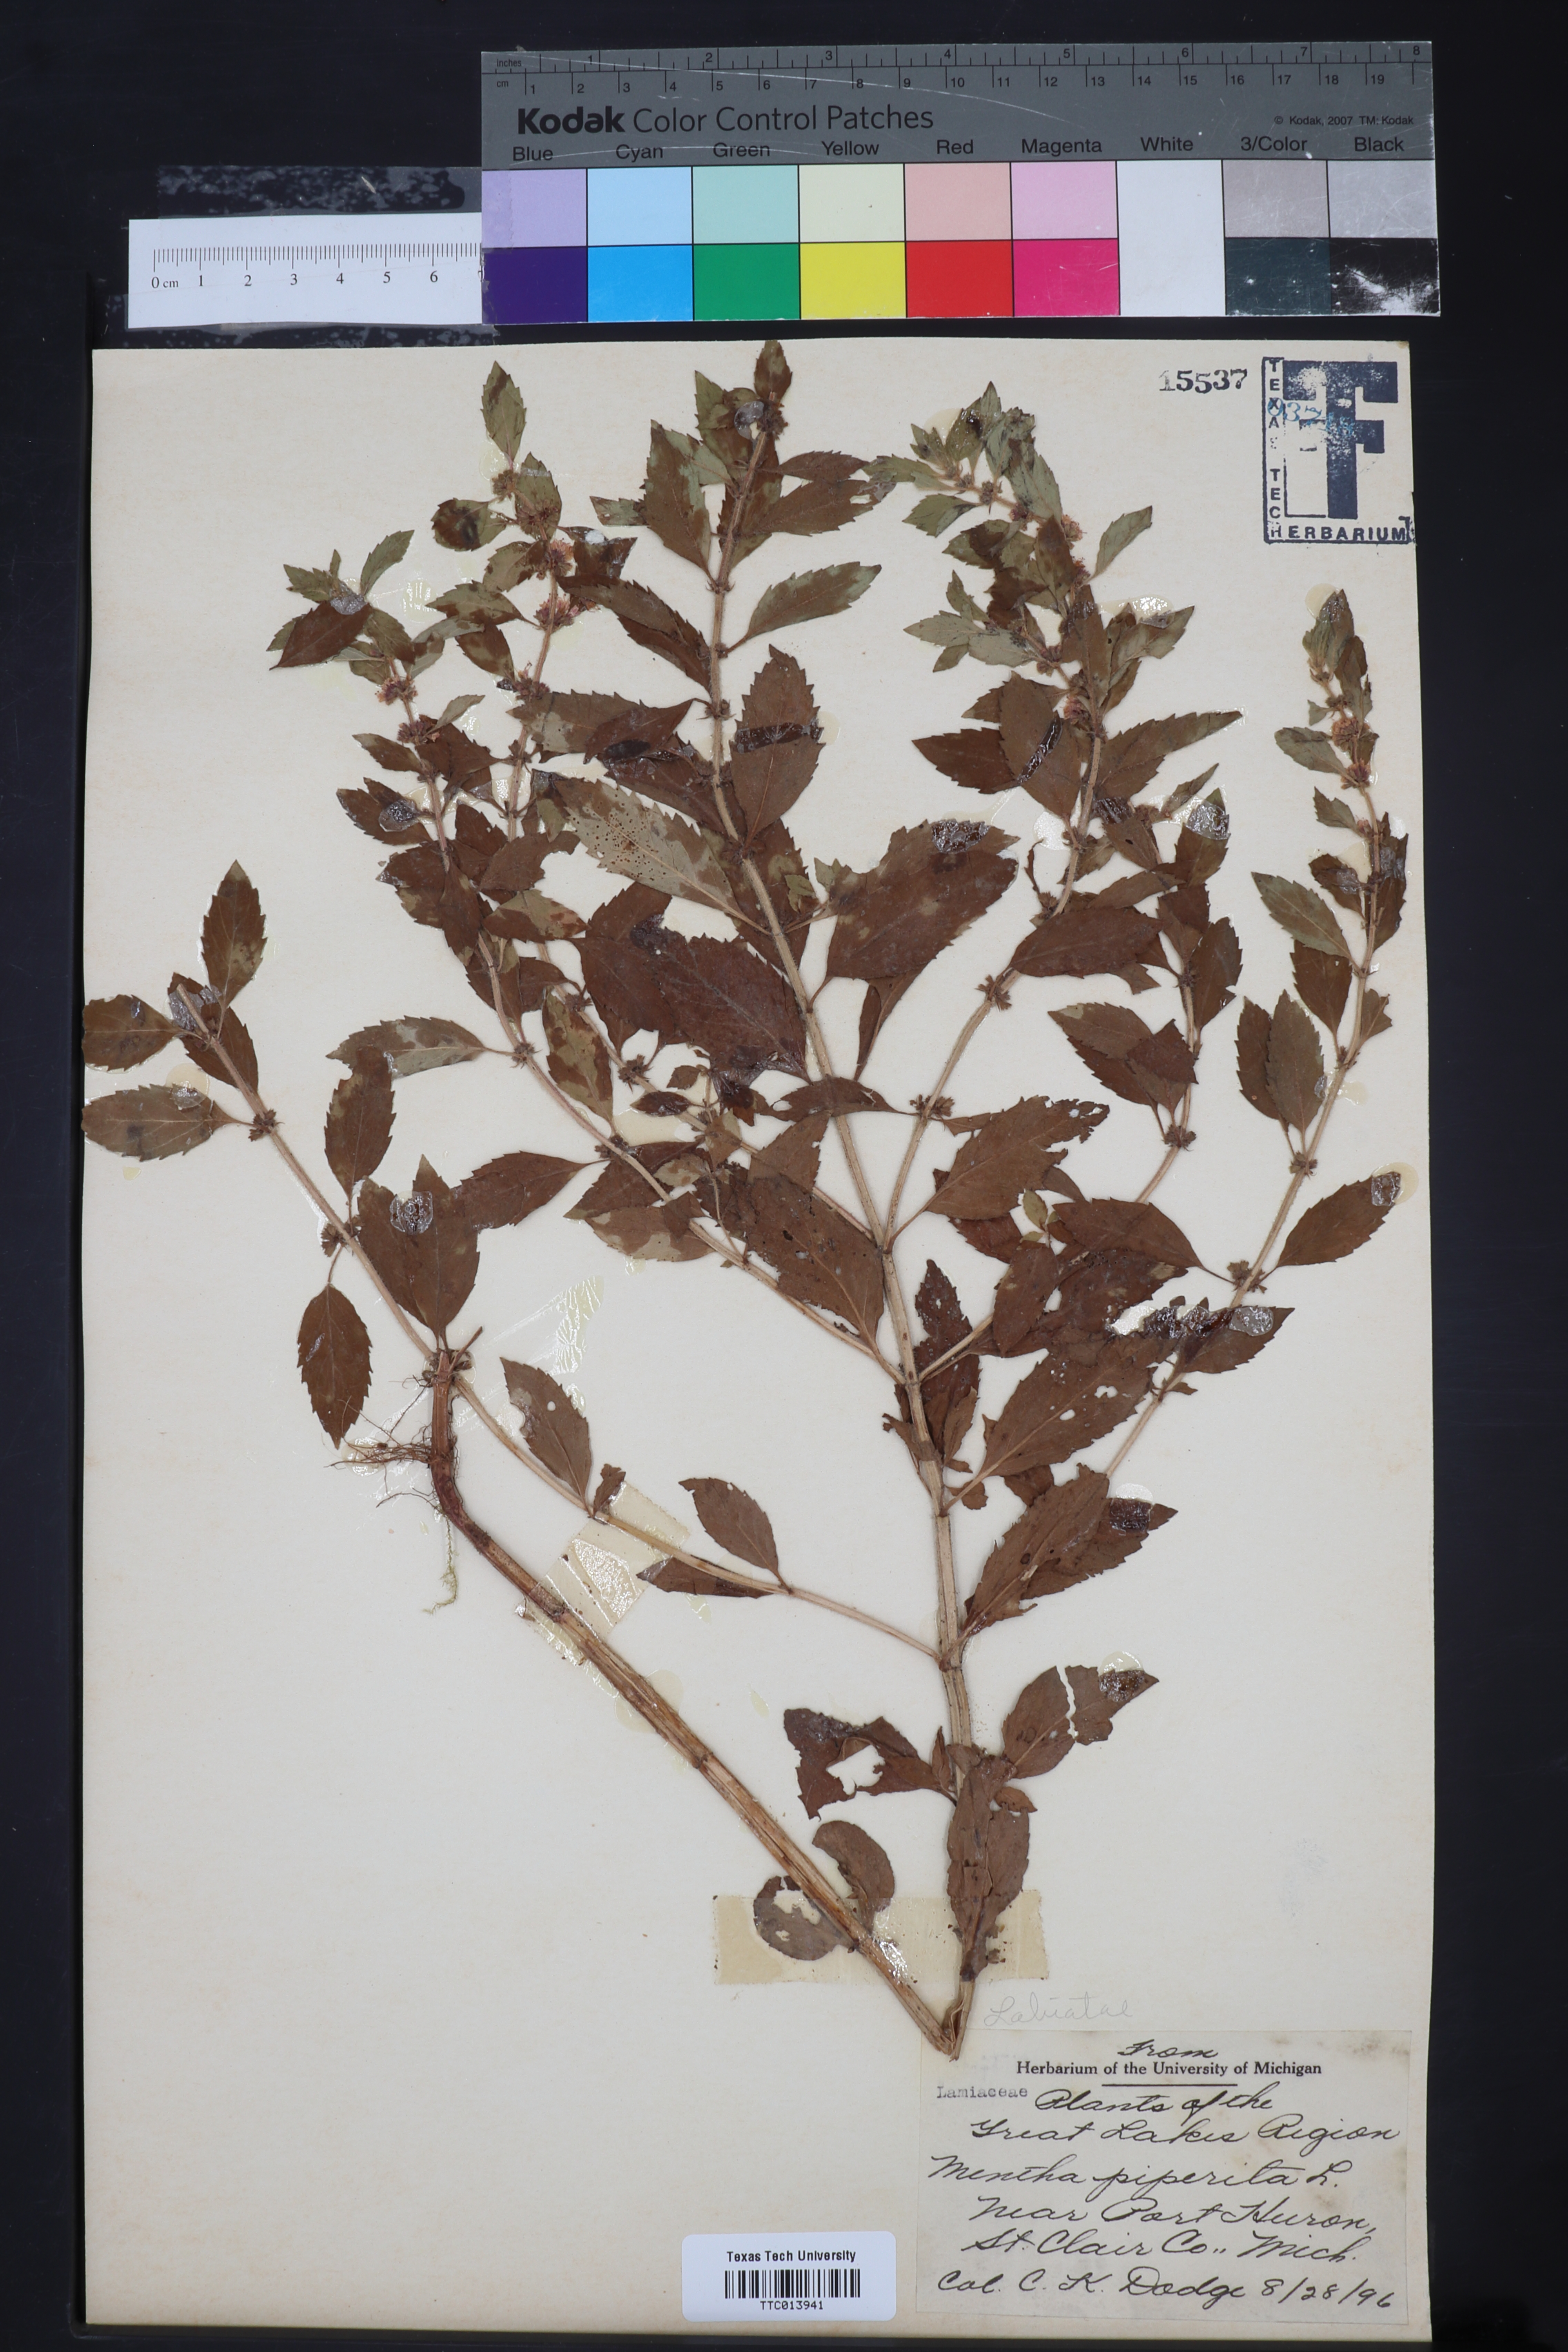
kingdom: Plantae
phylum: Tracheophyta
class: Magnoliopsida
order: Lamiales
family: Lamiaceae
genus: Mentha
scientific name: Mentha piperita
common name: Peppermint
